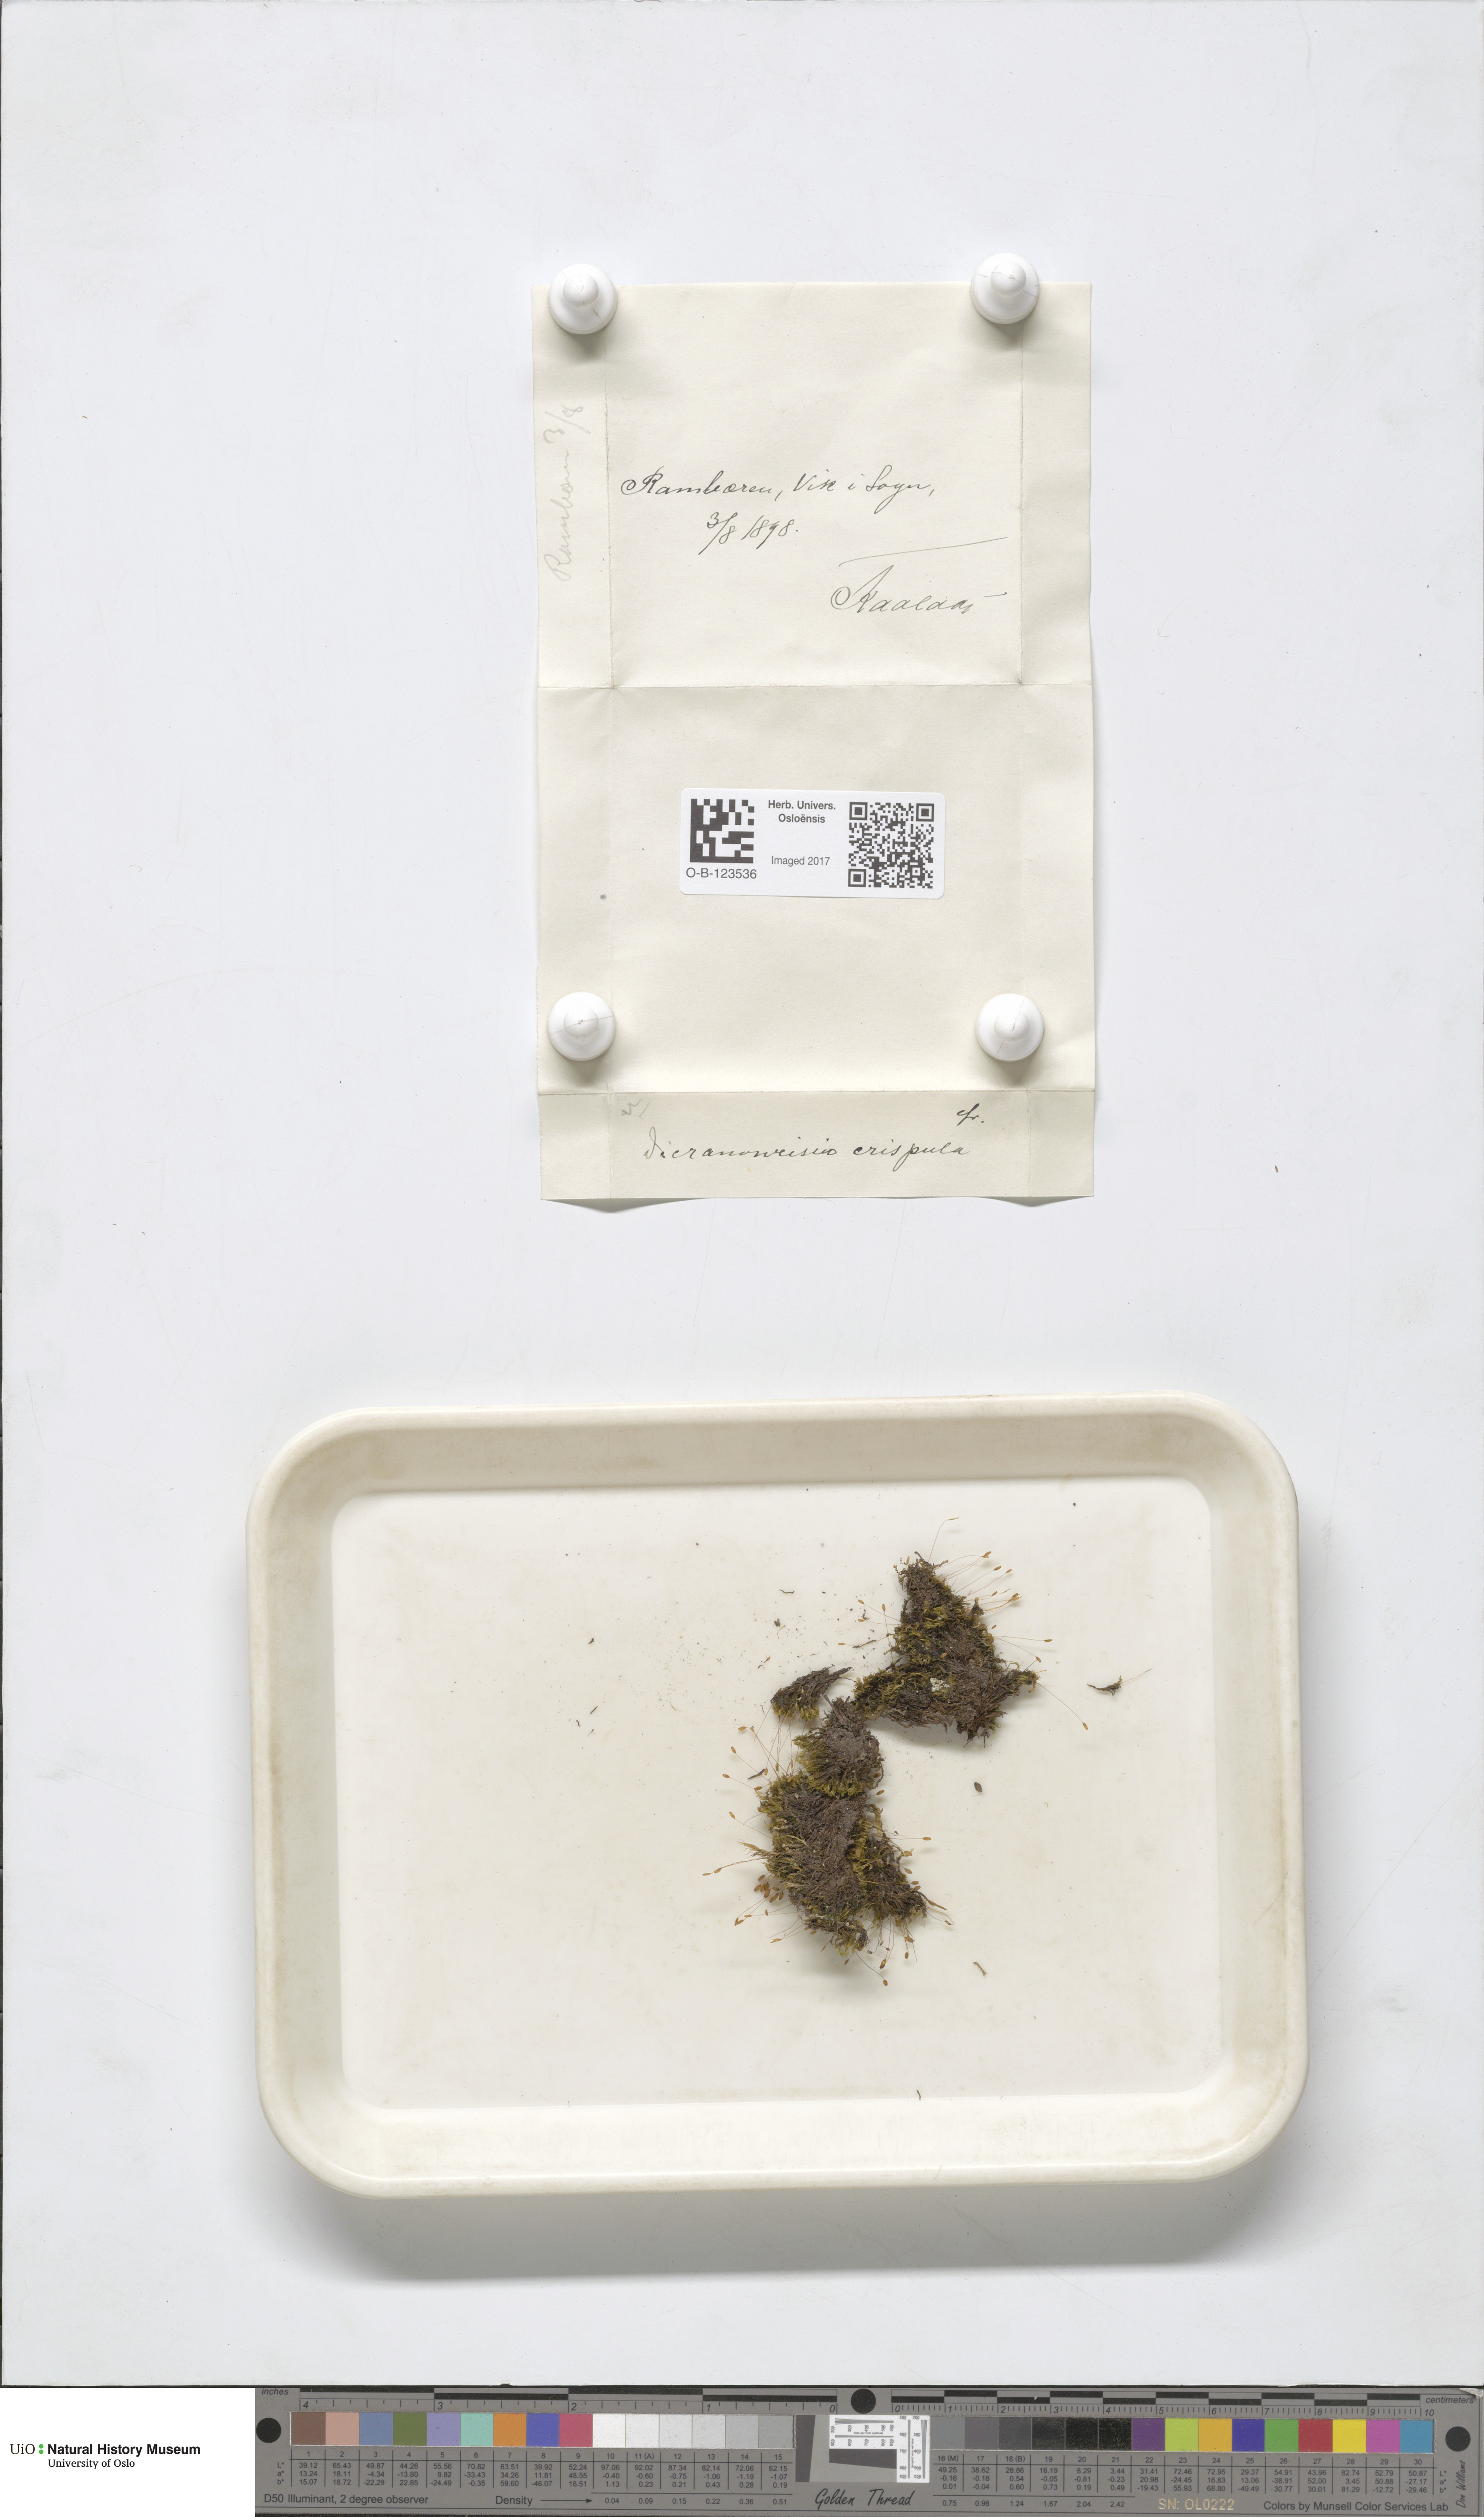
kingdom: Plantae
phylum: Bryophyta
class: Bryopsida
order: Scouleriales
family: Hymenolomataceae
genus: Hymenoloma
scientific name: Hymenoloma crispulum
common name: Mountain pincushion
